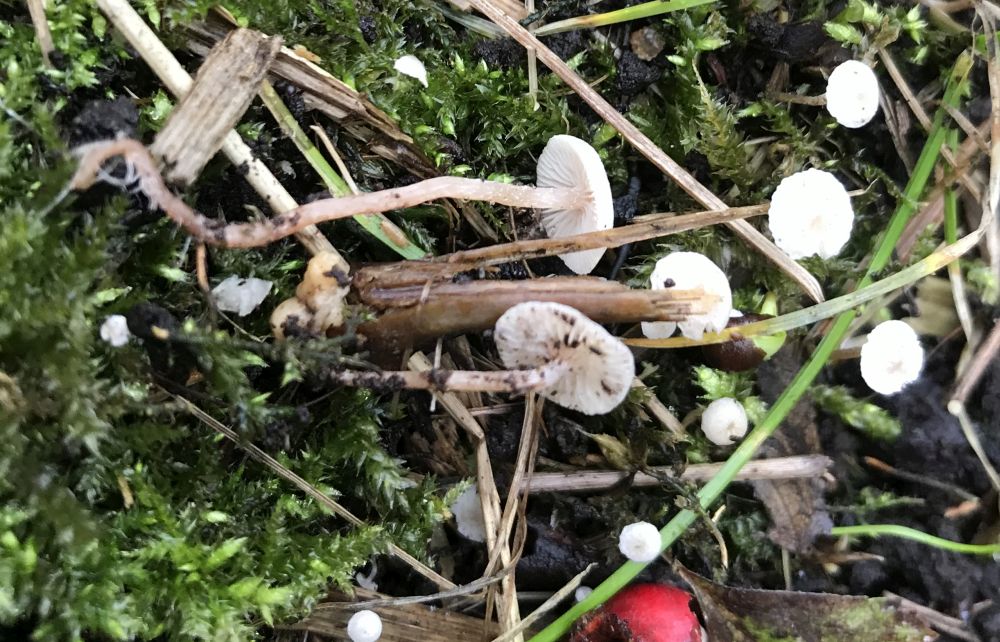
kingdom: Fungi
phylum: Basidiomycota
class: Agaricomycetes
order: Agaricales
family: Tricholomataceae
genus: Collybia
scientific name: Collybia cookei
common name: gulknoldet lighat
